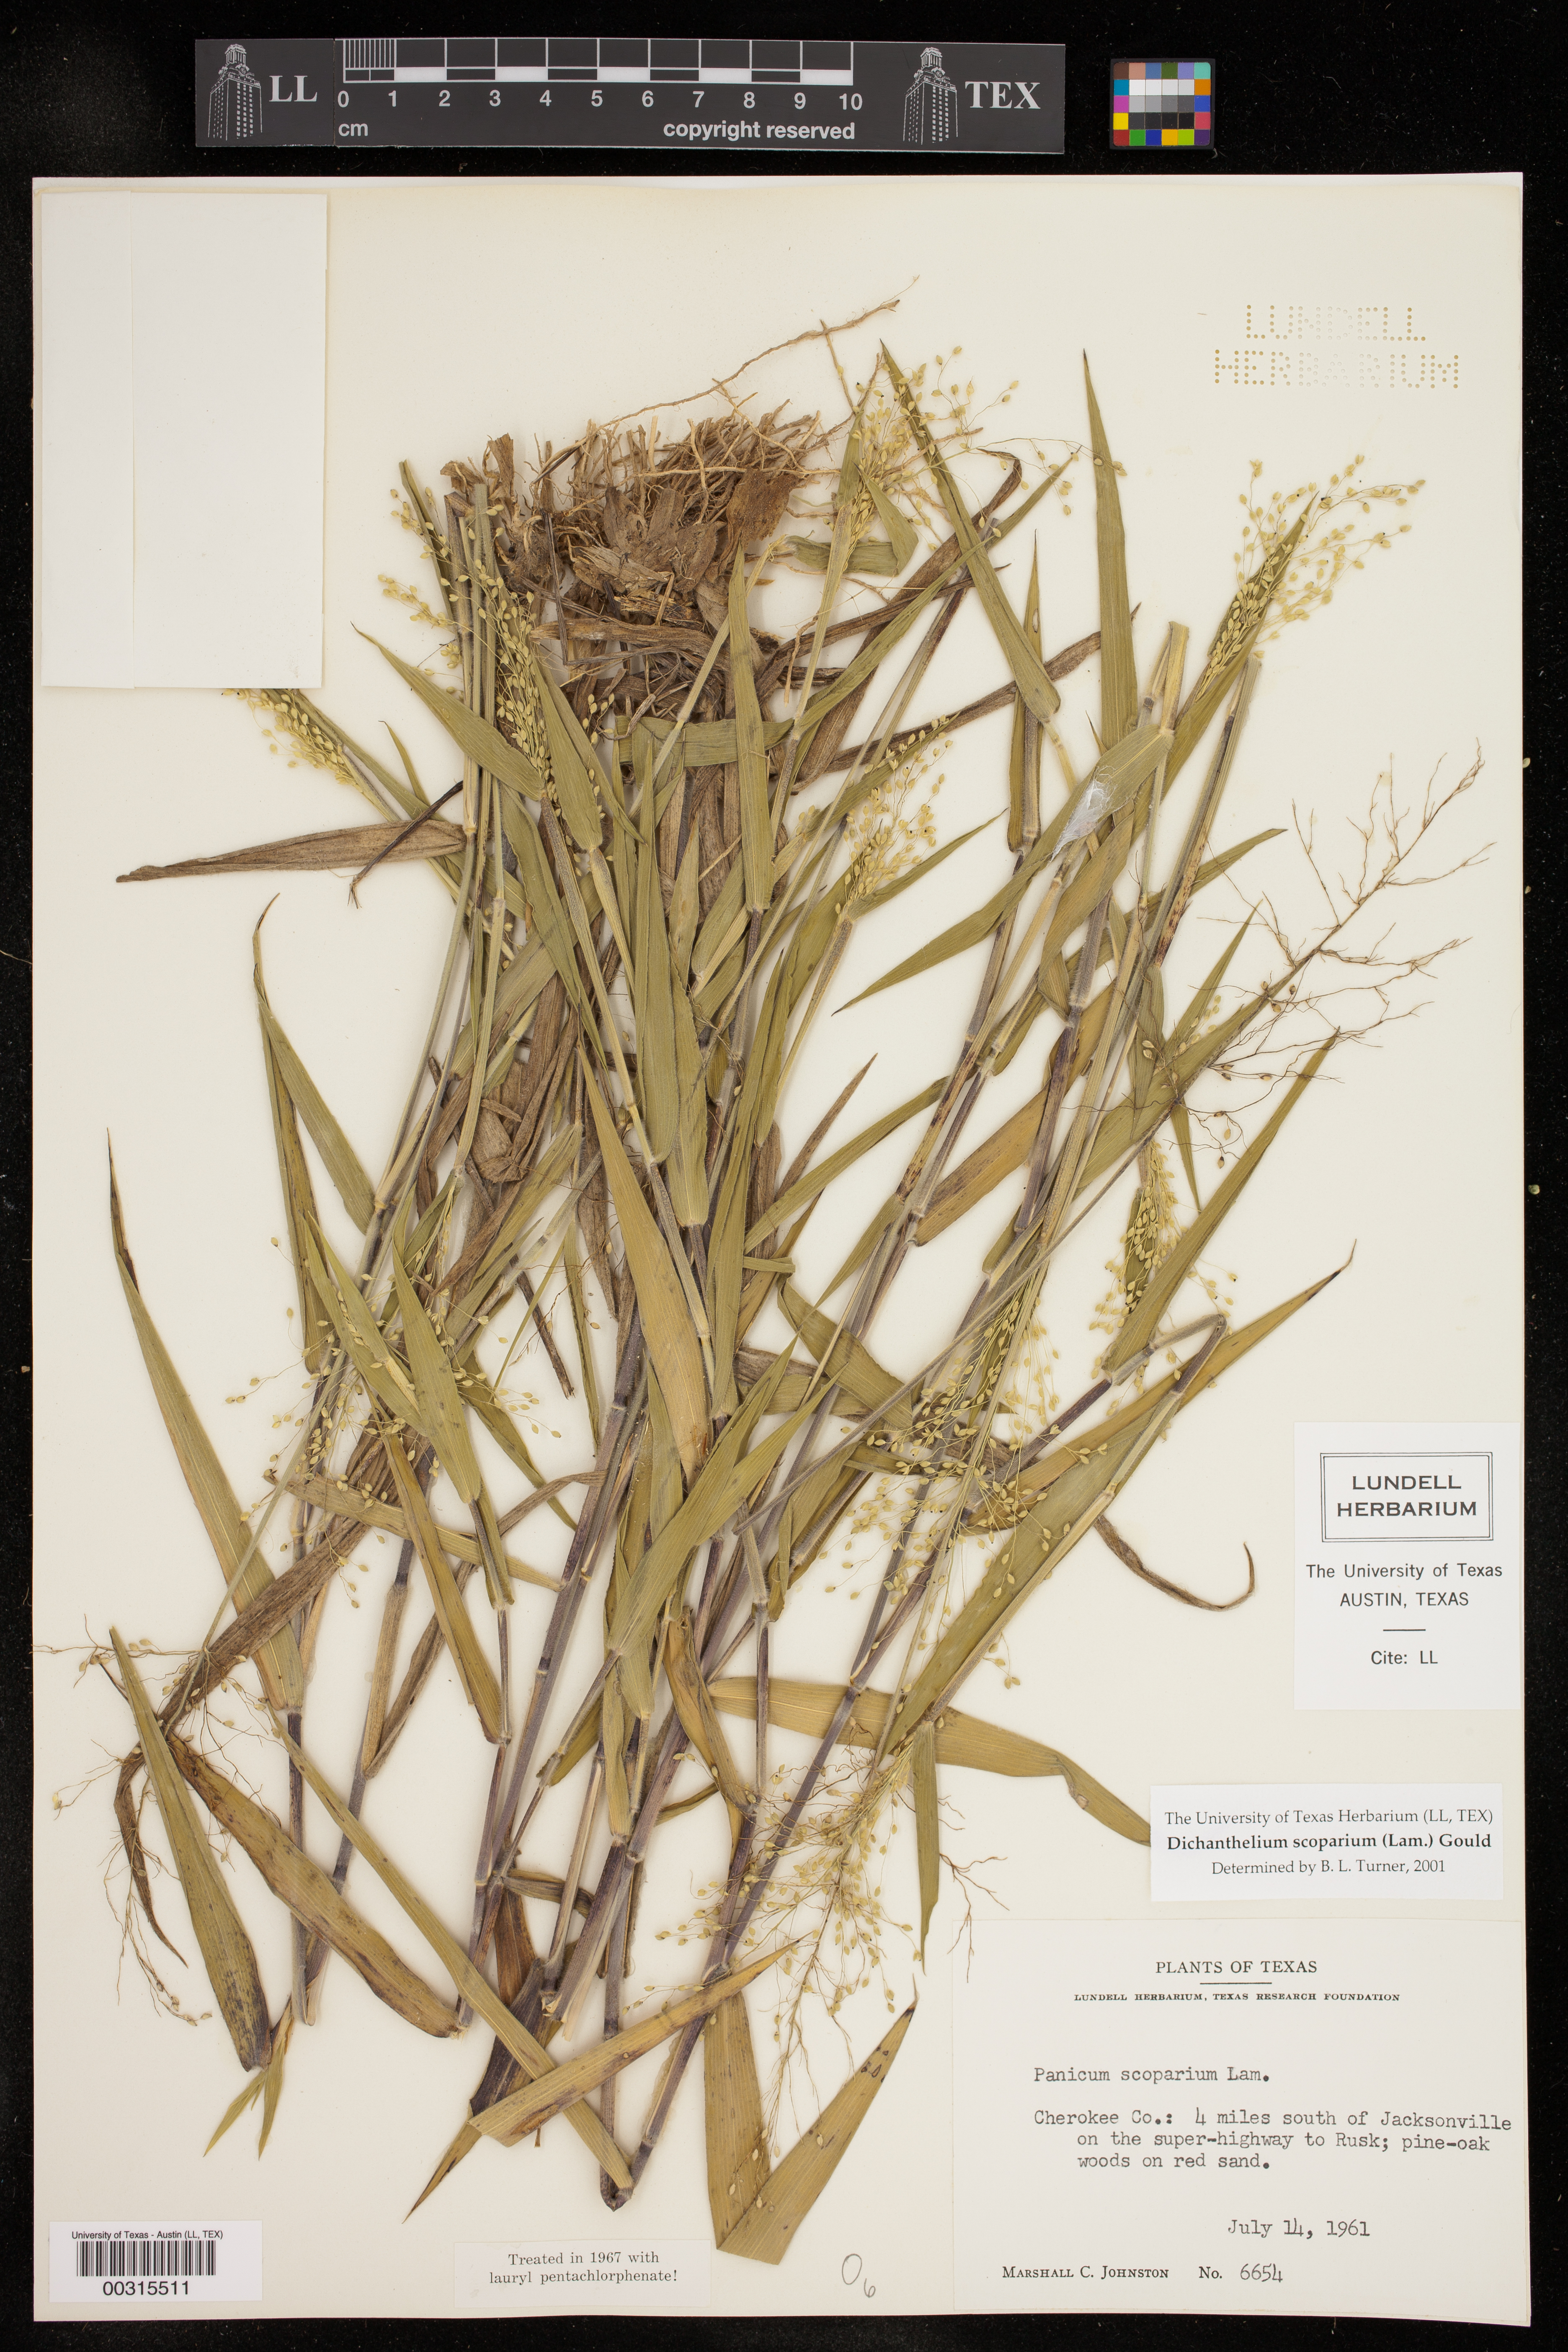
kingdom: Plantae
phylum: Tracheophyta
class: Liliopsida
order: Poales
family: Poaceae
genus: Dichanthelium
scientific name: Dichanthelium scoparium
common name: Velvety panic grass
